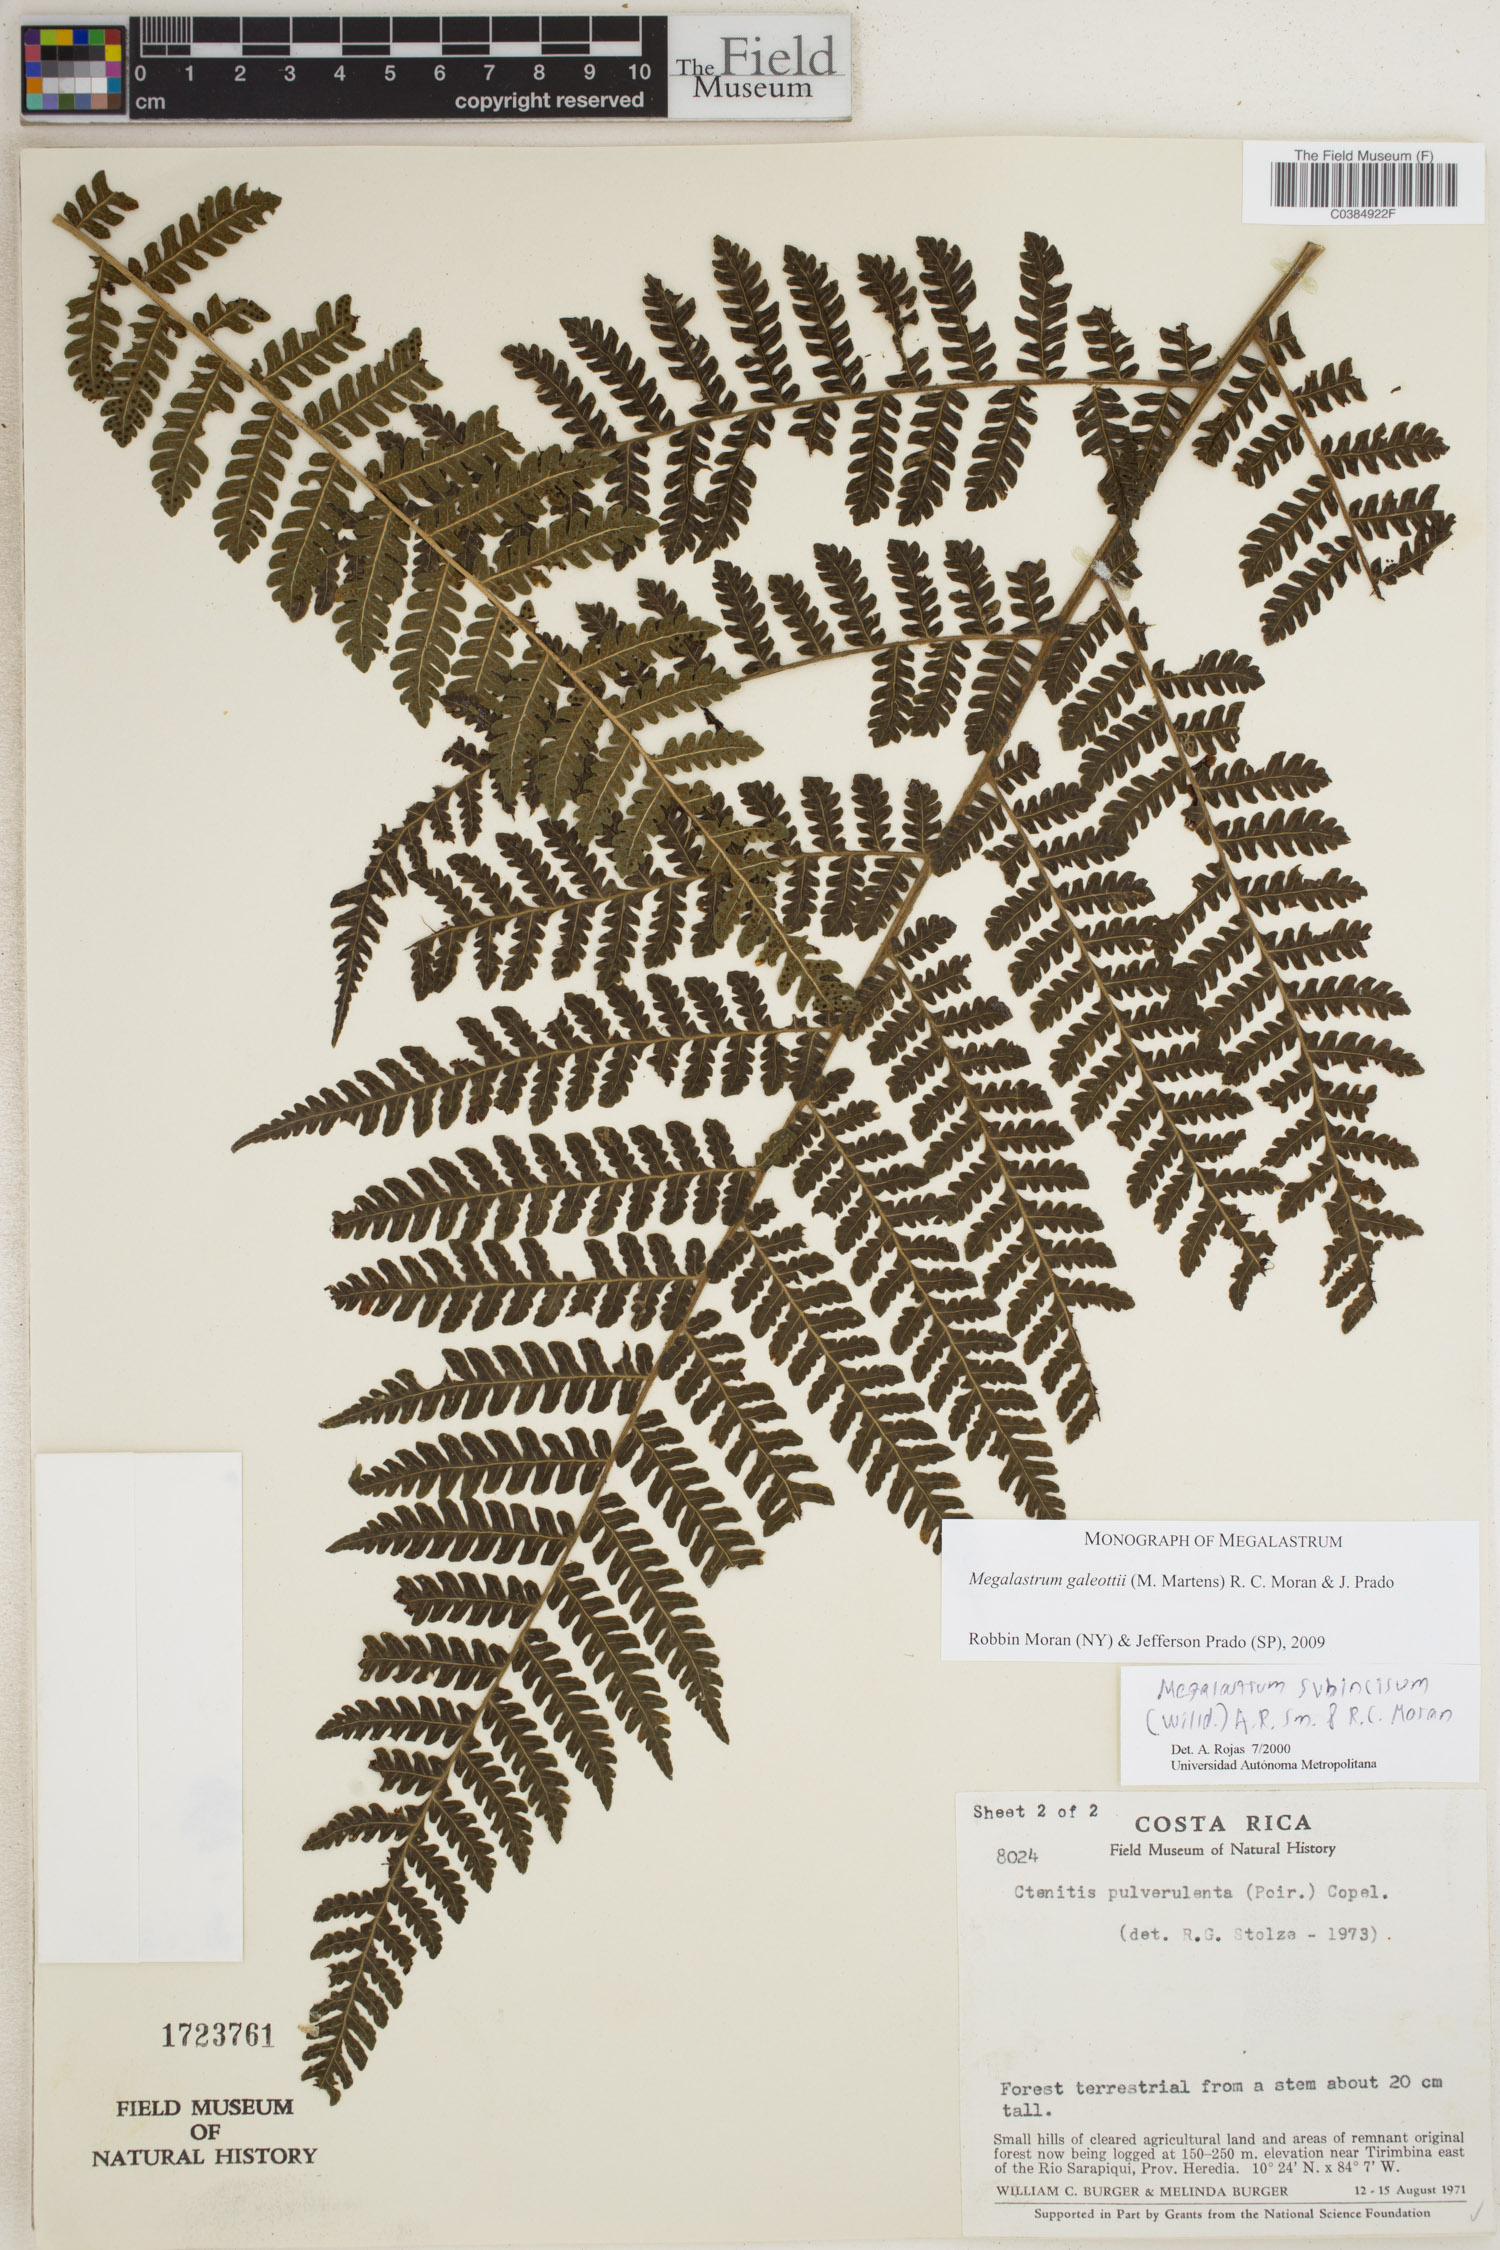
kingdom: Plantae
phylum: Tracheophyta
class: Polypodiopsida
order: Polypodiales
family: Dryopteridaceae
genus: Megalastrum
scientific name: Megalastrum galeottii
